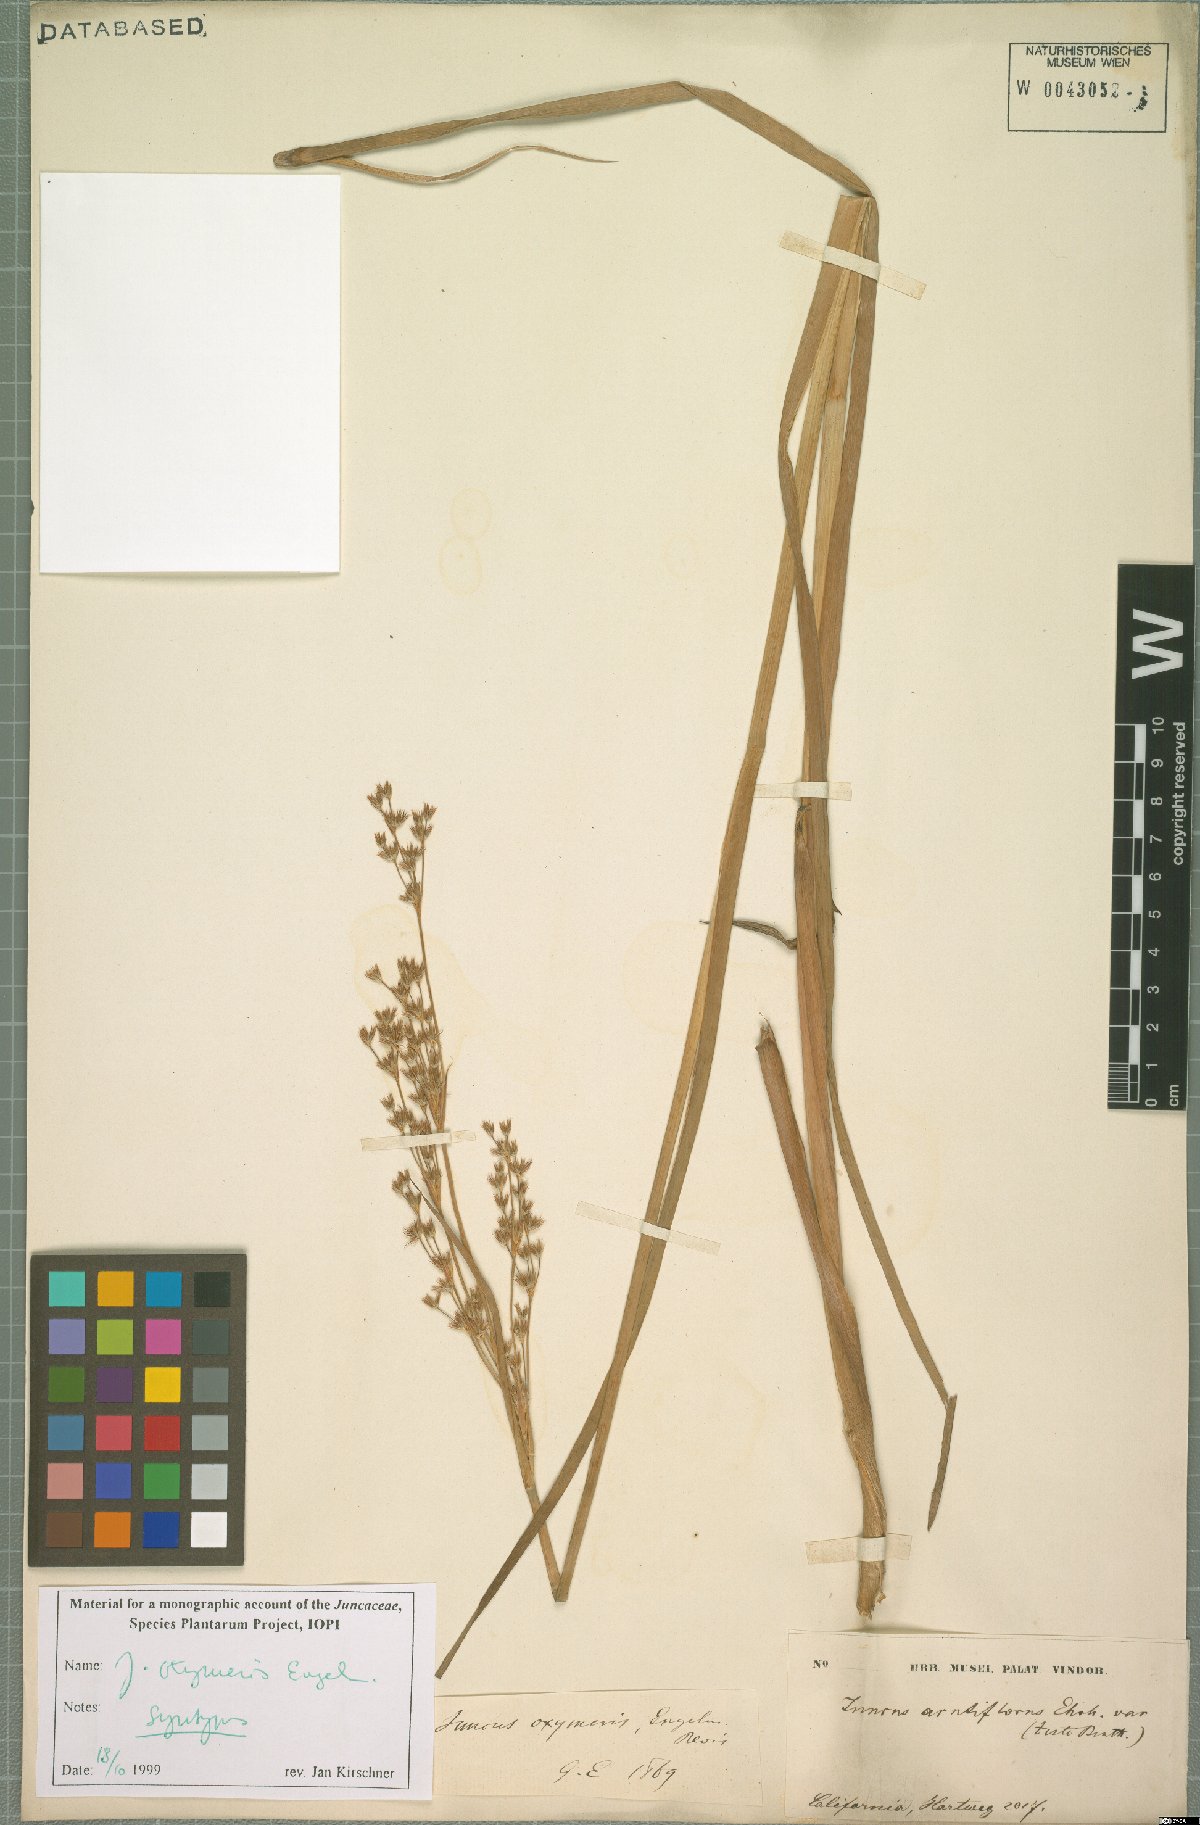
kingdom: Plantae
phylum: Tracheophyta
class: Liliopsida
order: Poales
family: Juncaceae
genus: Juncus
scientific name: Juncus oxymeris
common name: Pointed rush
